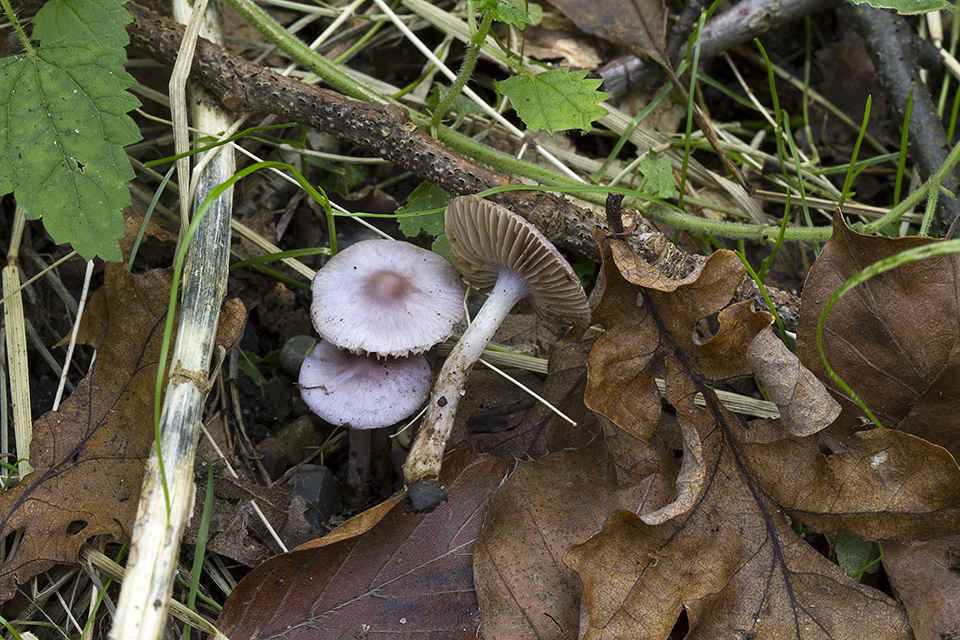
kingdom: Fungi
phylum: Basidiomycota
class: Agaricomycetes
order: Agaricales
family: Inocybaceae
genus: Inocybe
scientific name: Inocybe geophylla
